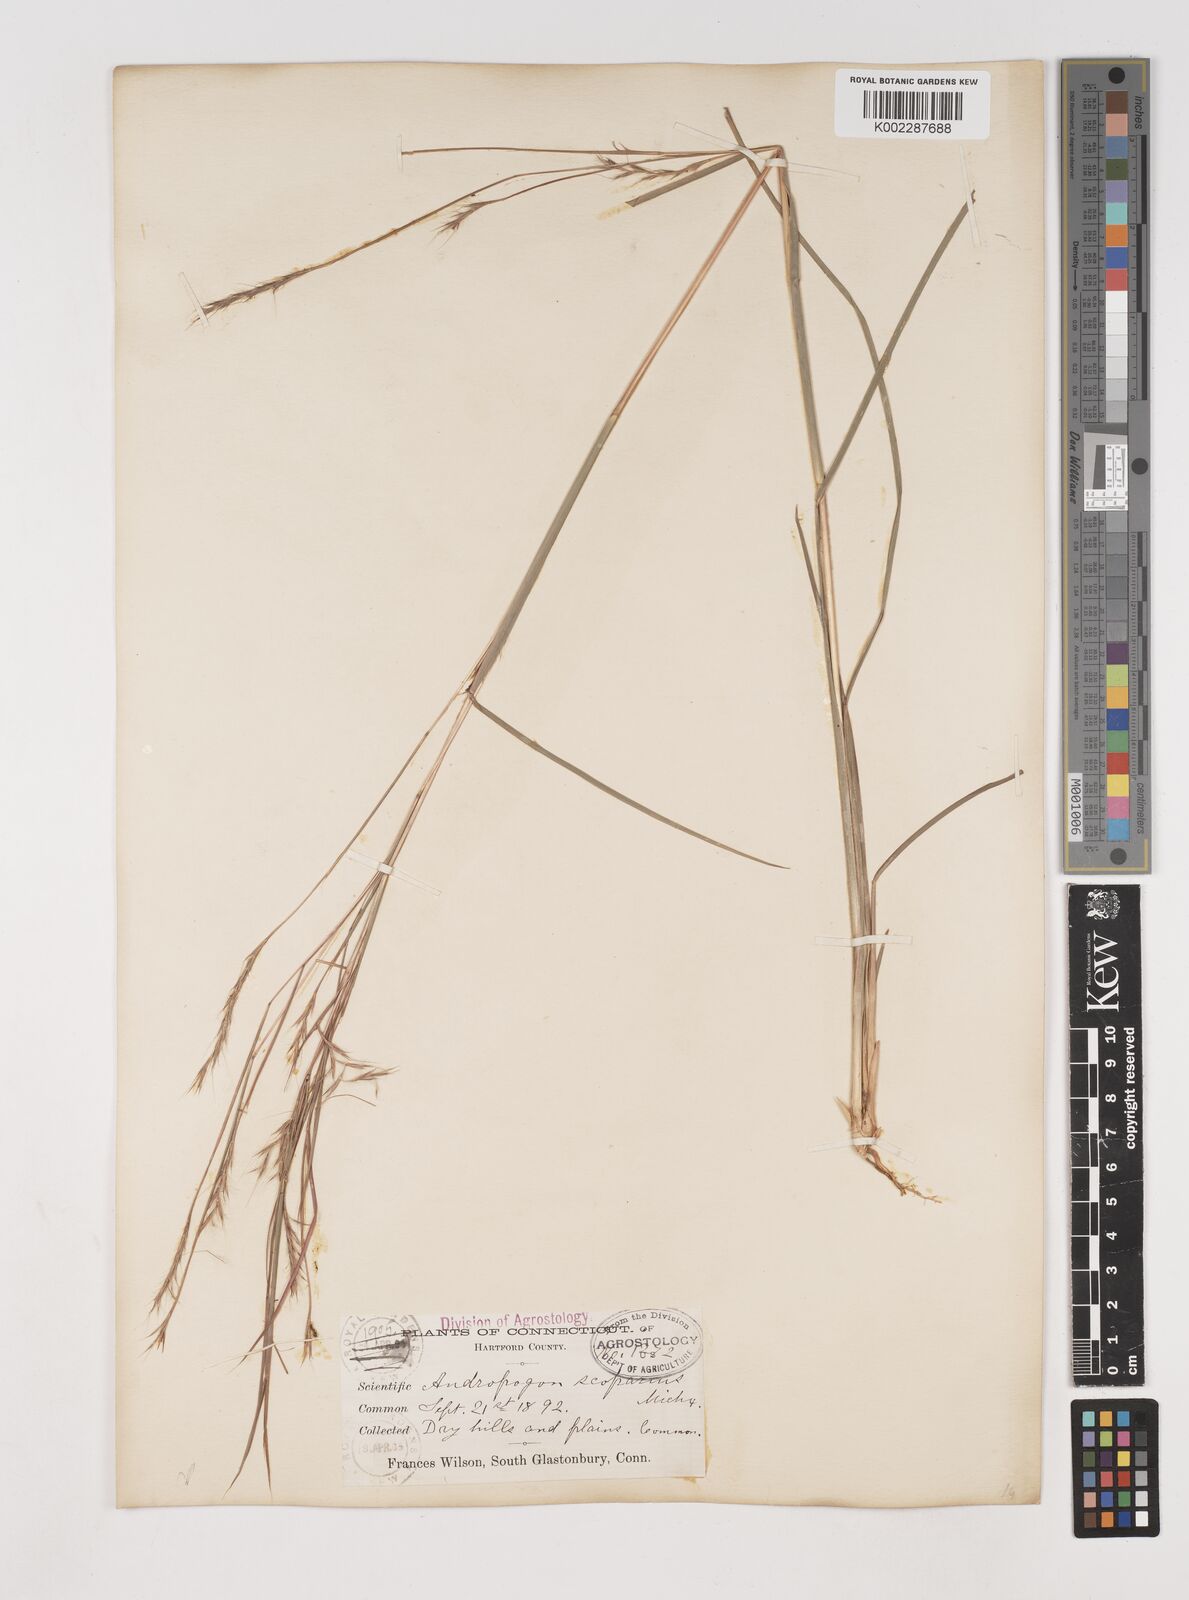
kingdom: Plantae
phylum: Tracheophyta
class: Liliopsida
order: Poales
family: Poaceae
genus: Schizachyrium
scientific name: Schizachyrium scoparium
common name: Little bluestem
